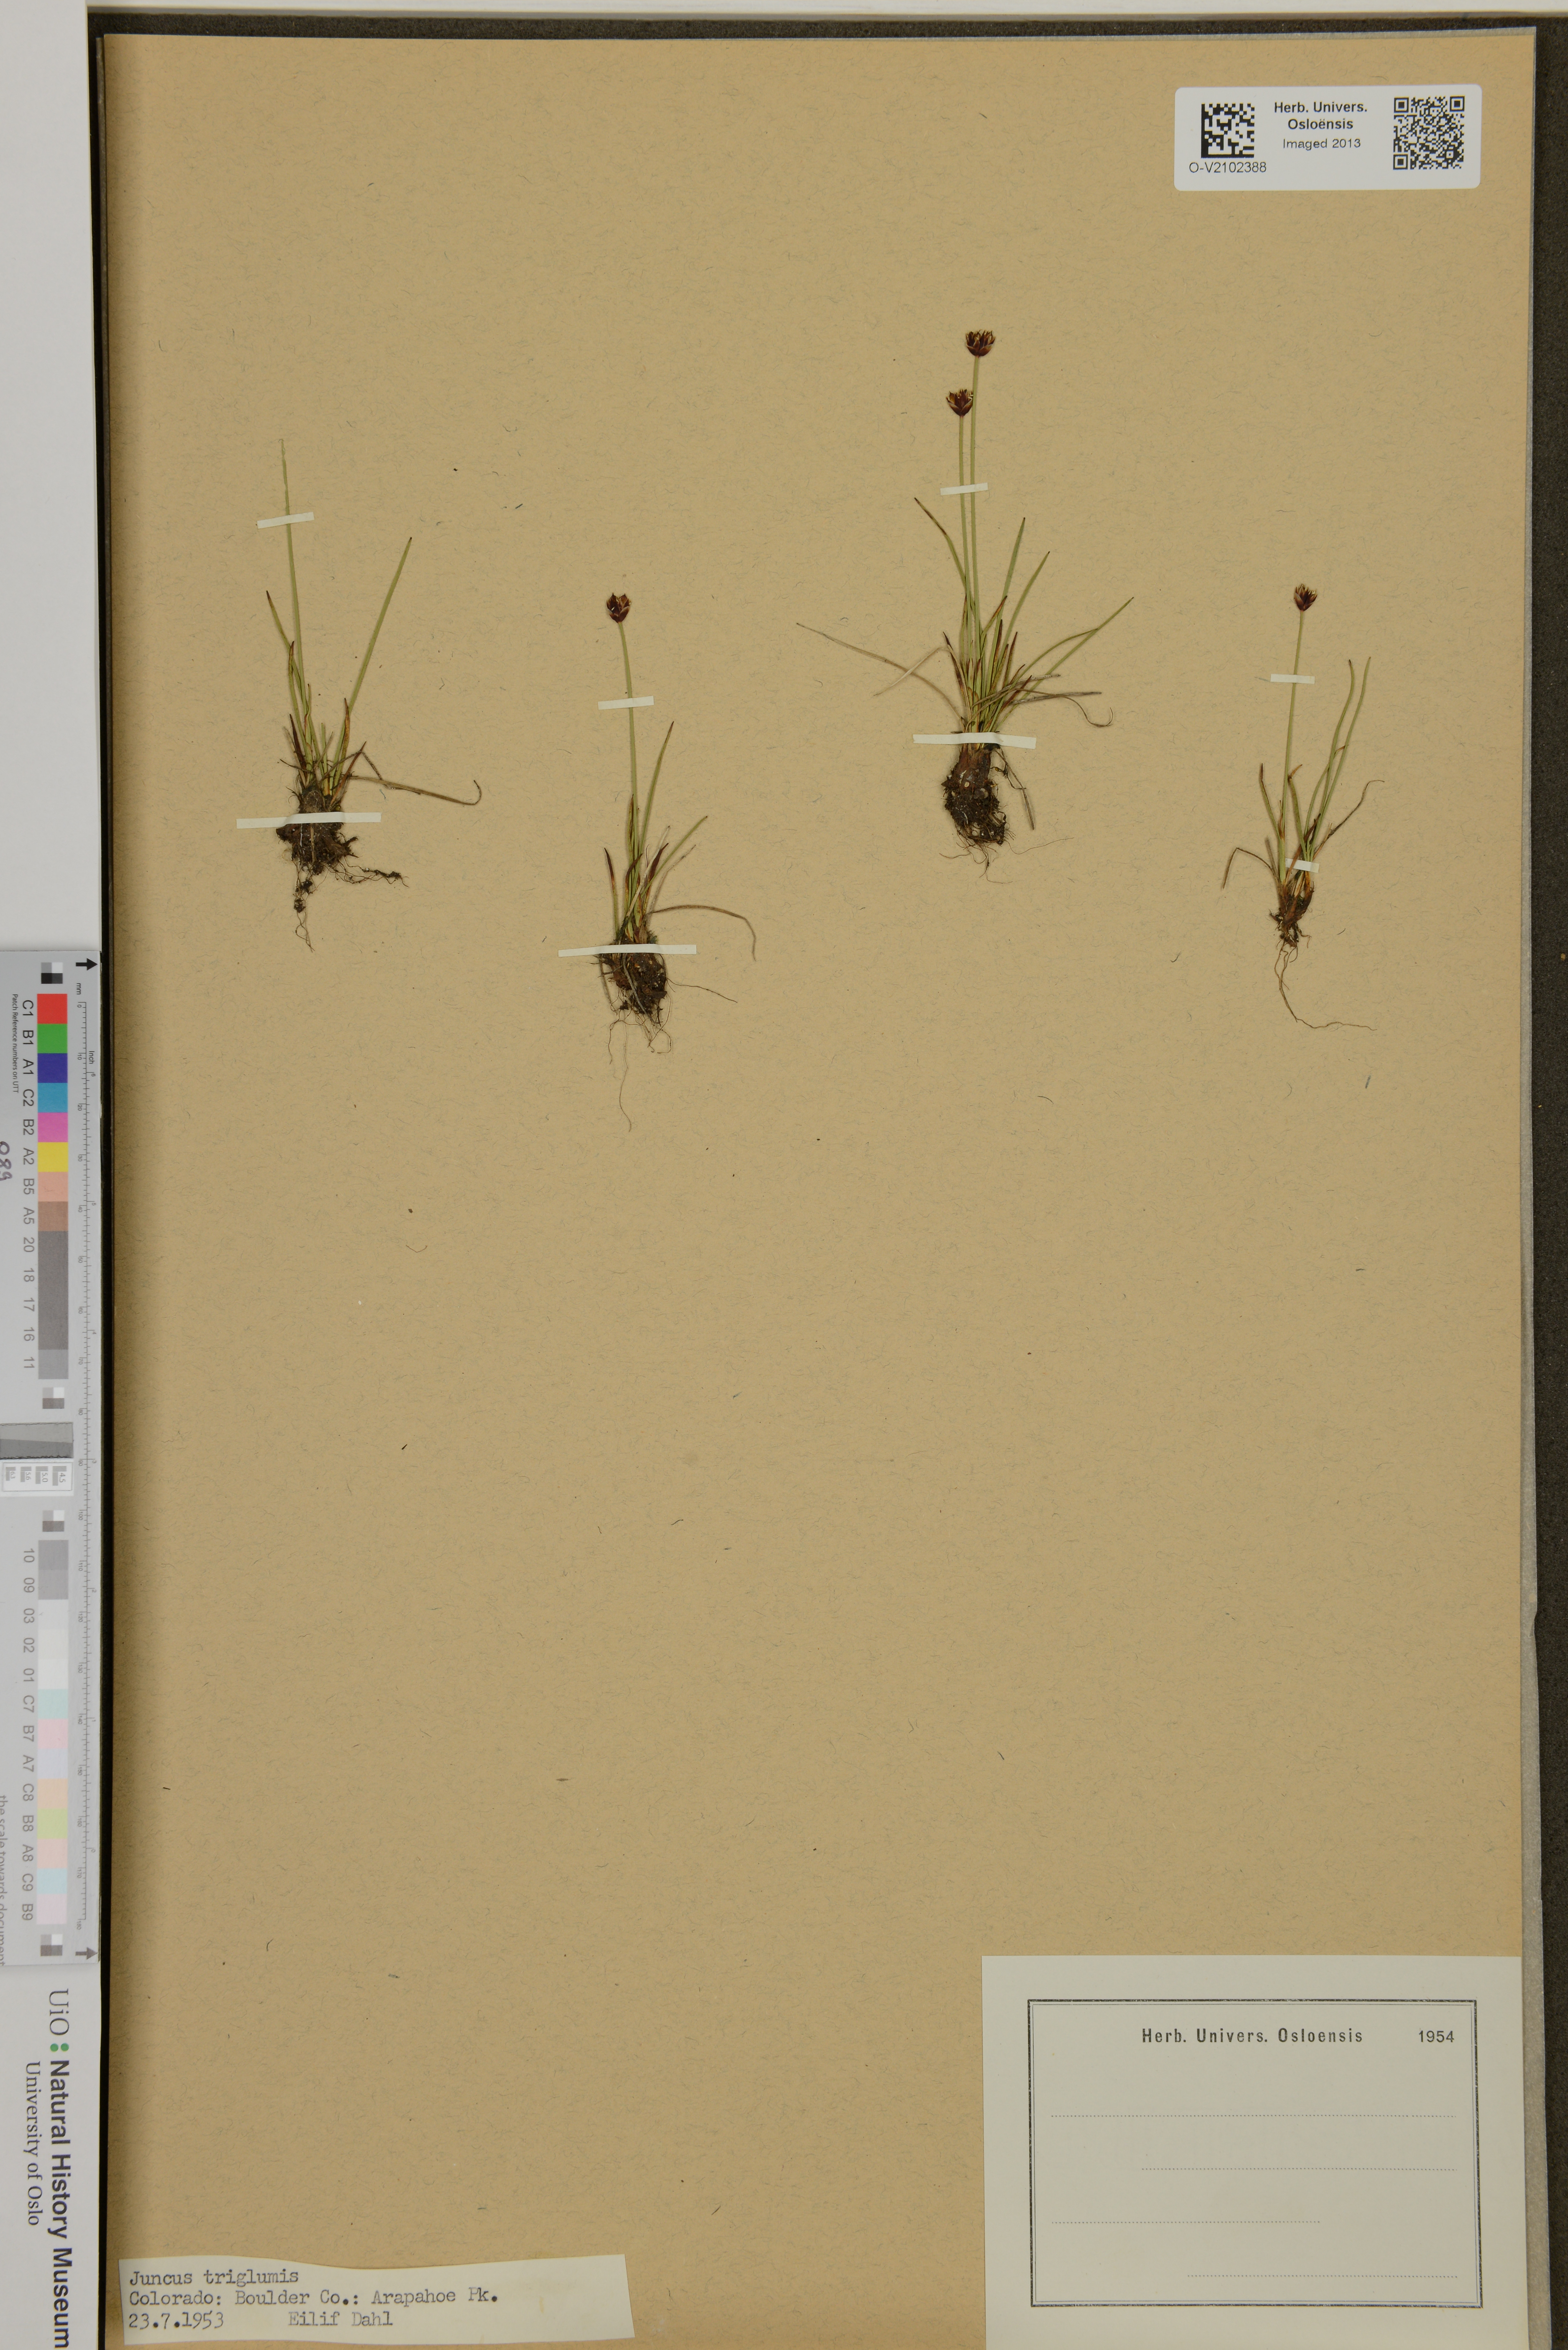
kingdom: Plantae
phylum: Tracheophyta
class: Liliopsida
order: Poales
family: Juncaceae
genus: Juncus
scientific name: Juncus triglumis
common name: Three-flowered rush
